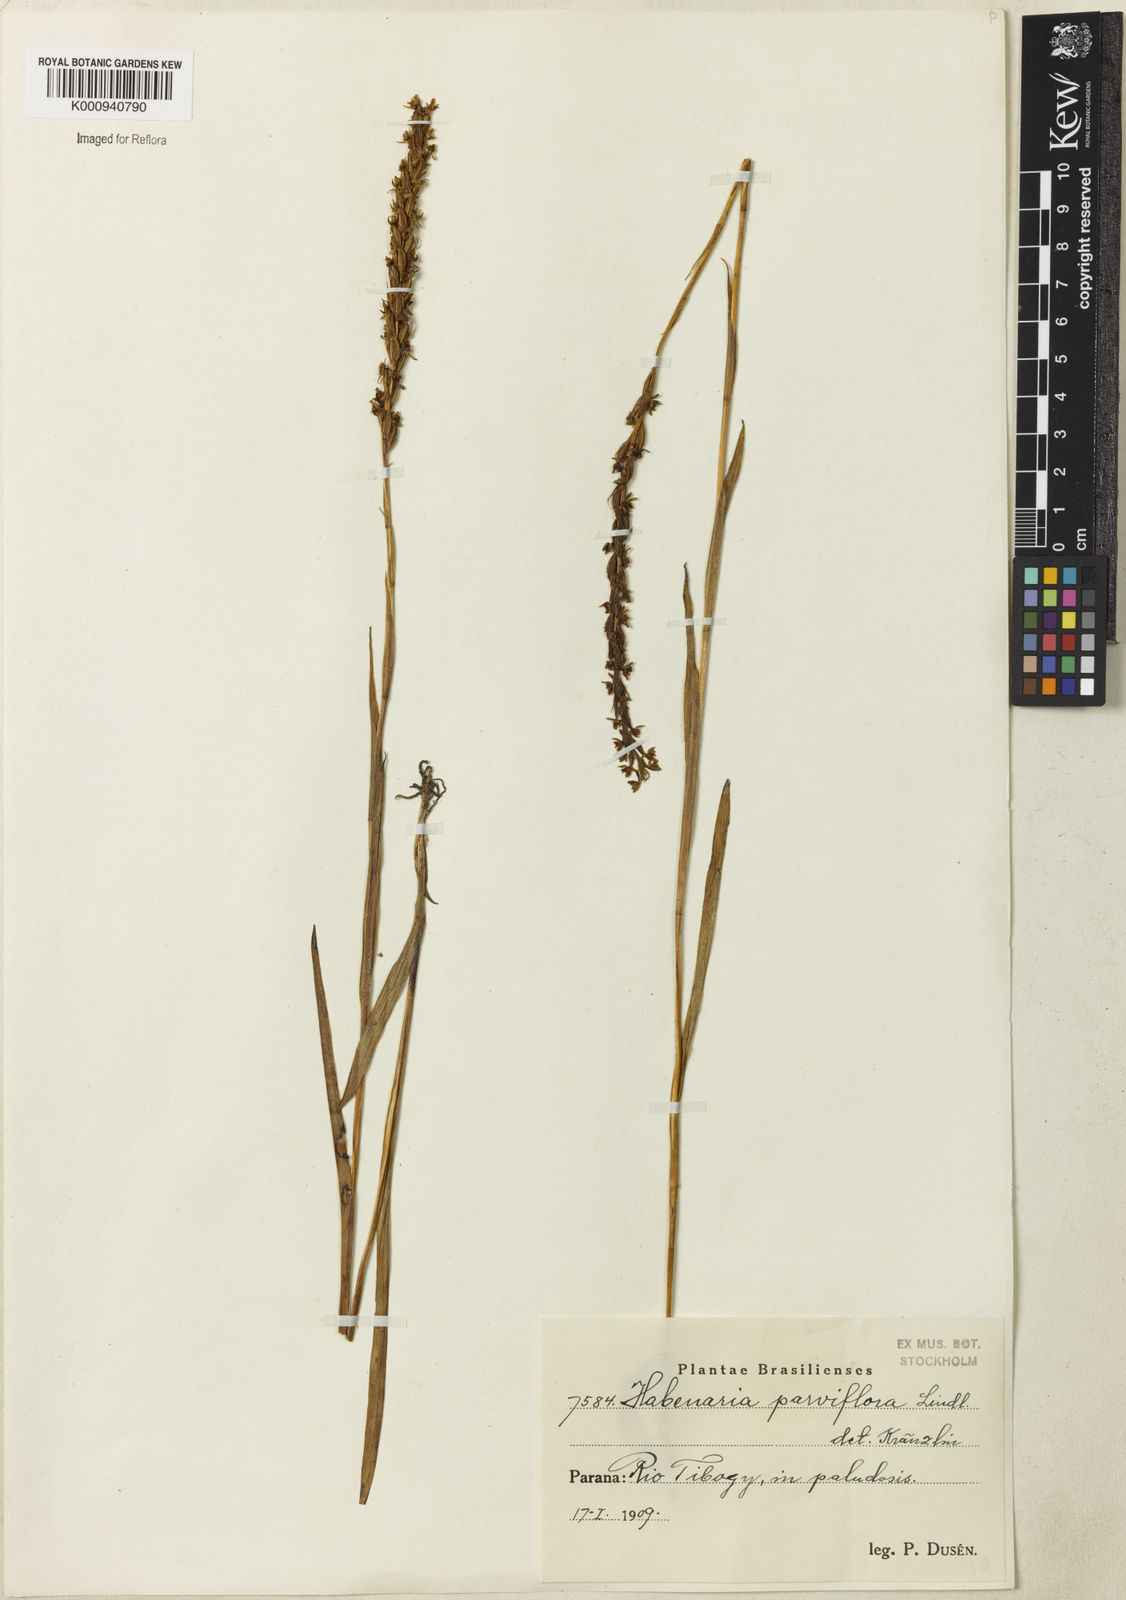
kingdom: Plantae
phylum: Tracheophyta
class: Liliopsida
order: Asparagales
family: Orchidaceae
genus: Habenaria
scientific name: Habenaria parviflora
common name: Small flowered habenaria
